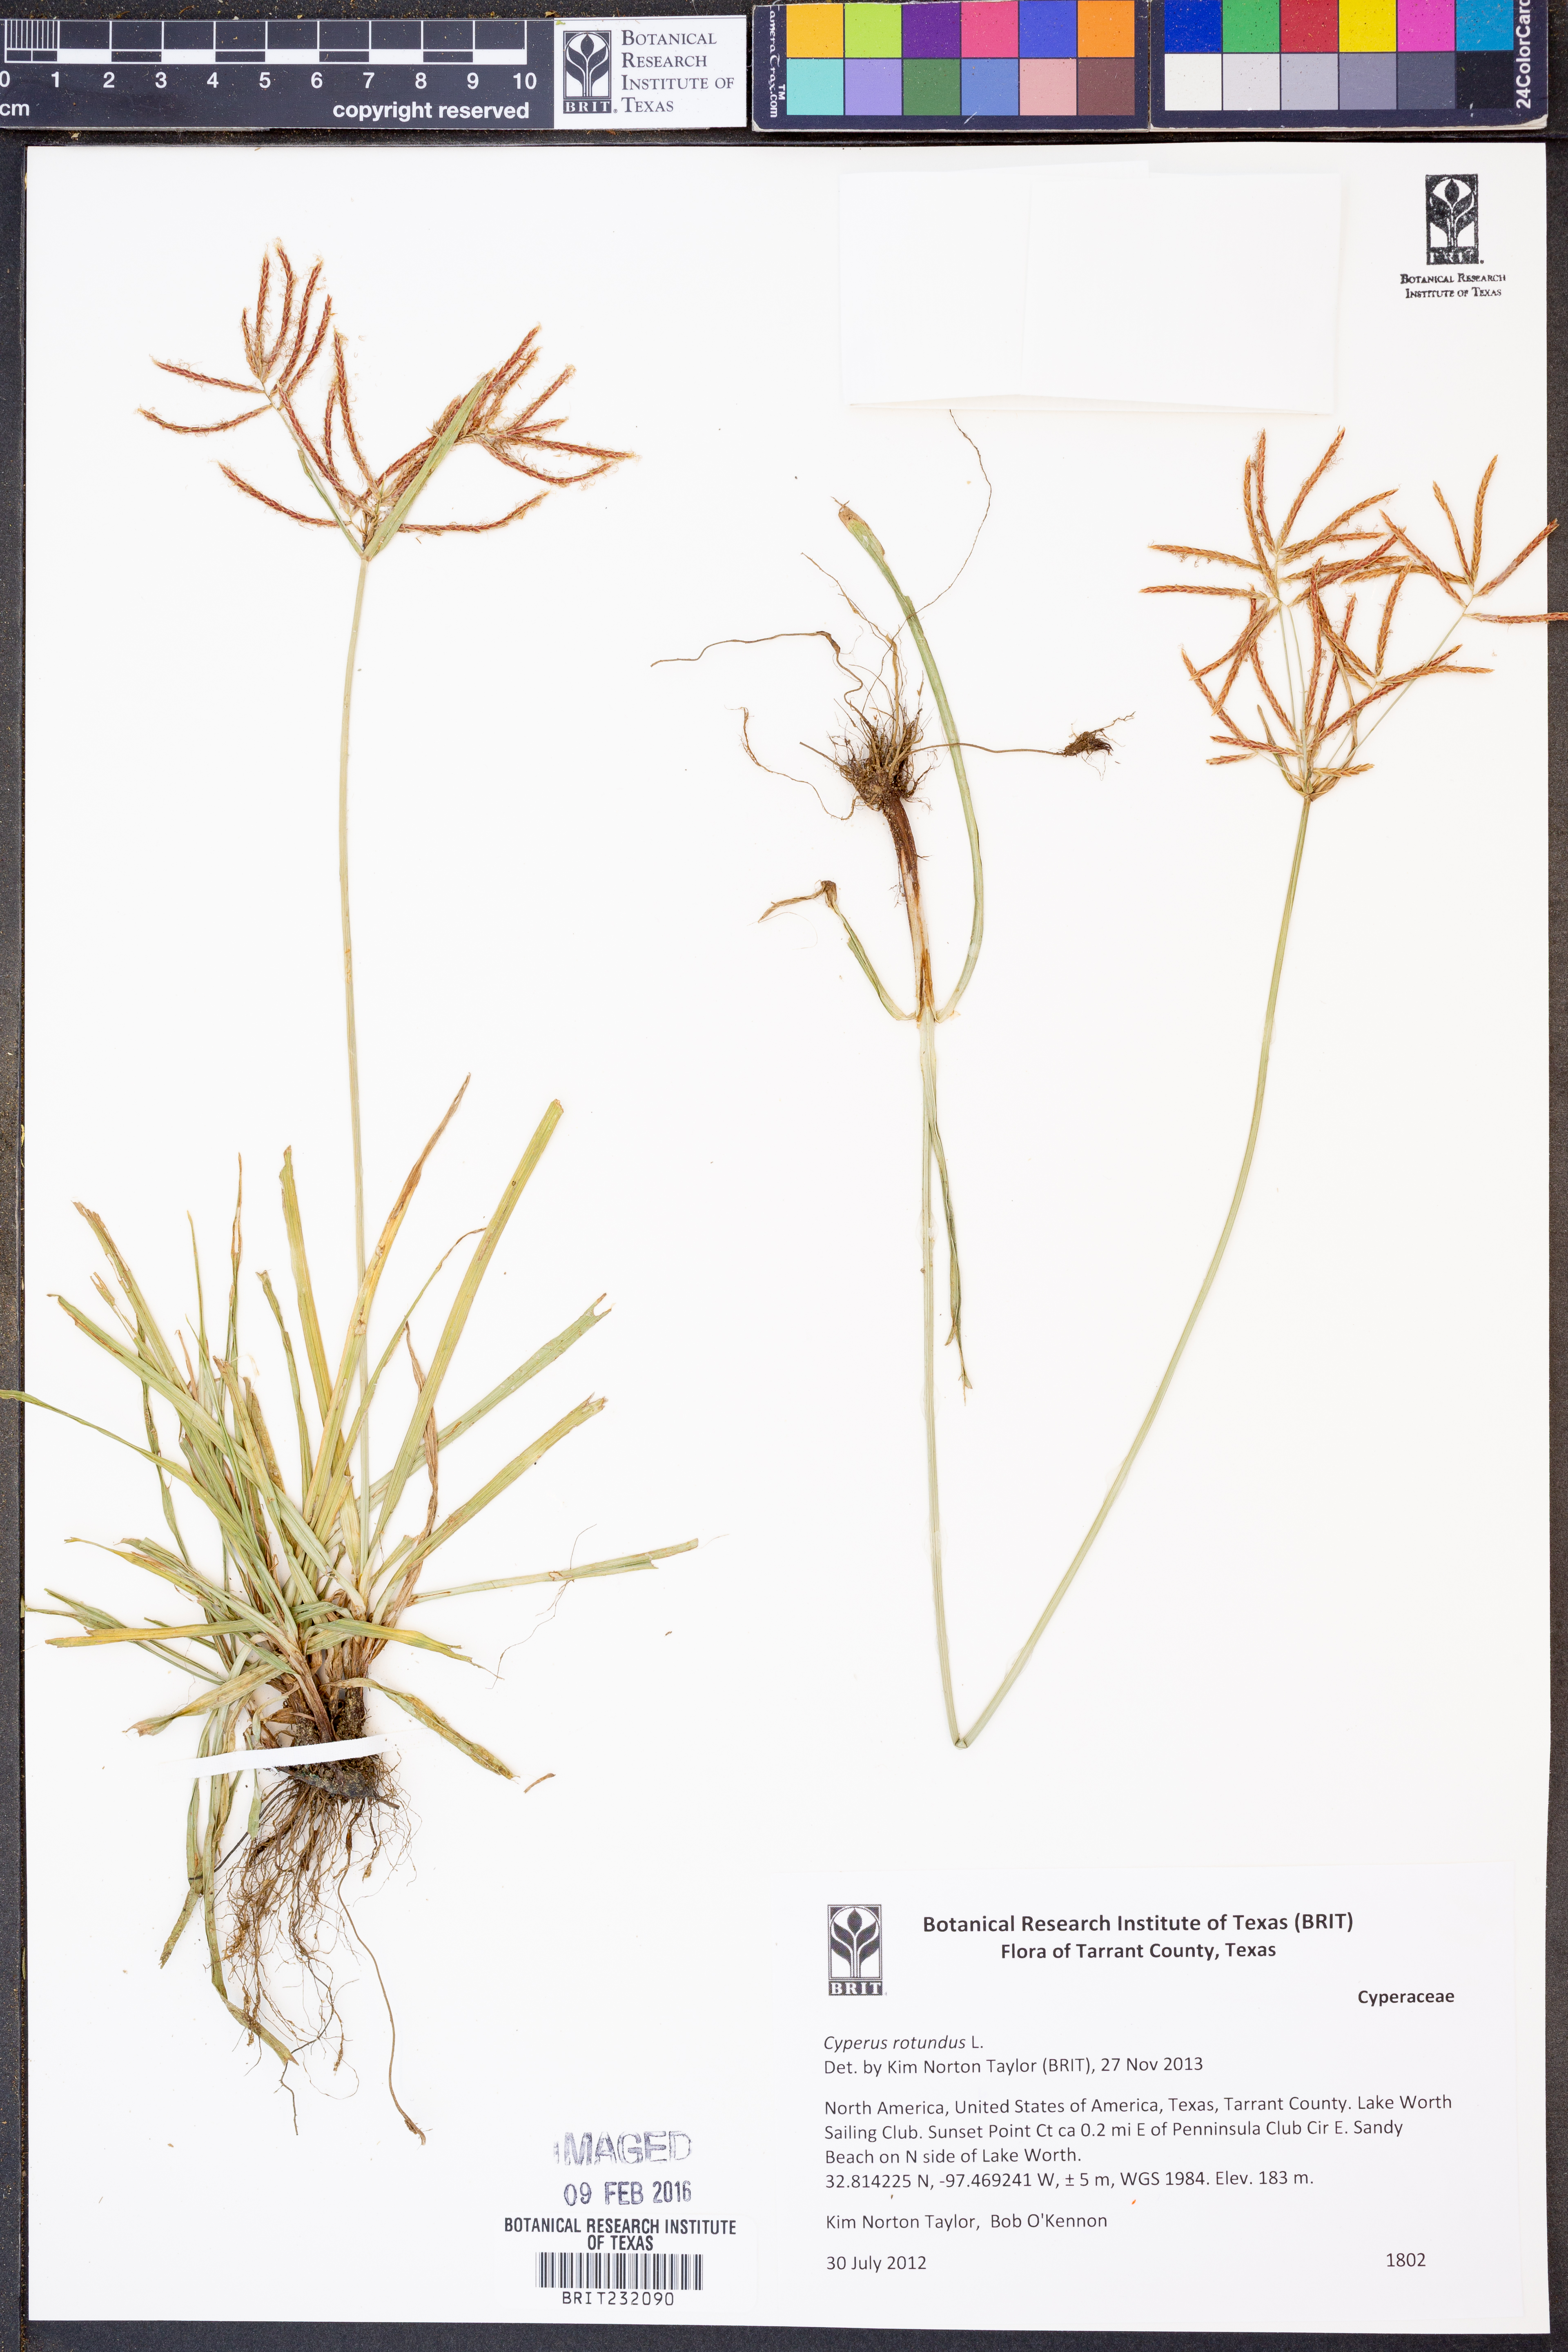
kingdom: Plantae
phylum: Tracheophyta
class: Liliopsida
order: Poales
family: Cyperaceae
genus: Cyperus
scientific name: Cyperus rotundus
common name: Nutgrass
